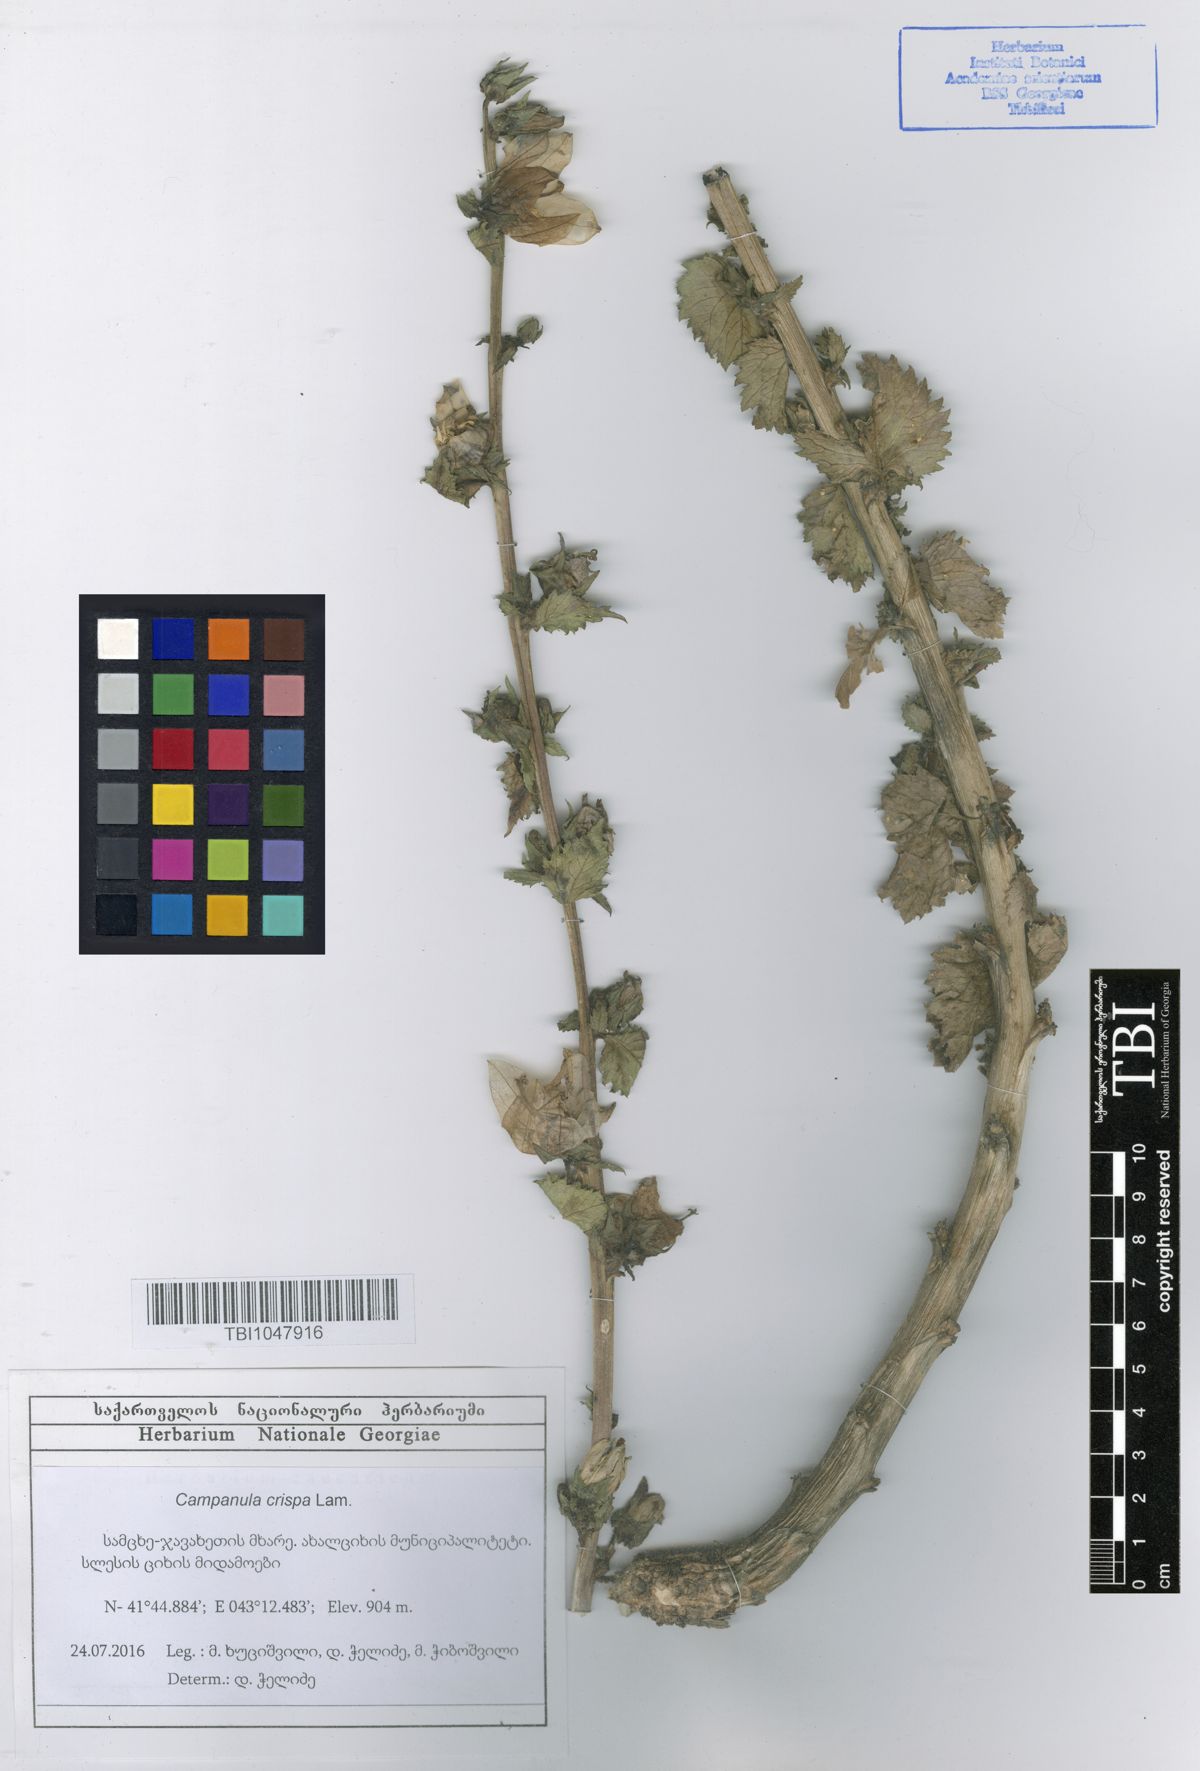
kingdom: Plantae
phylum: Tracheophyta
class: Magnoliopsida
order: Asterales
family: Campanulaceae
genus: Campanula
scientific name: Campanula crispa
